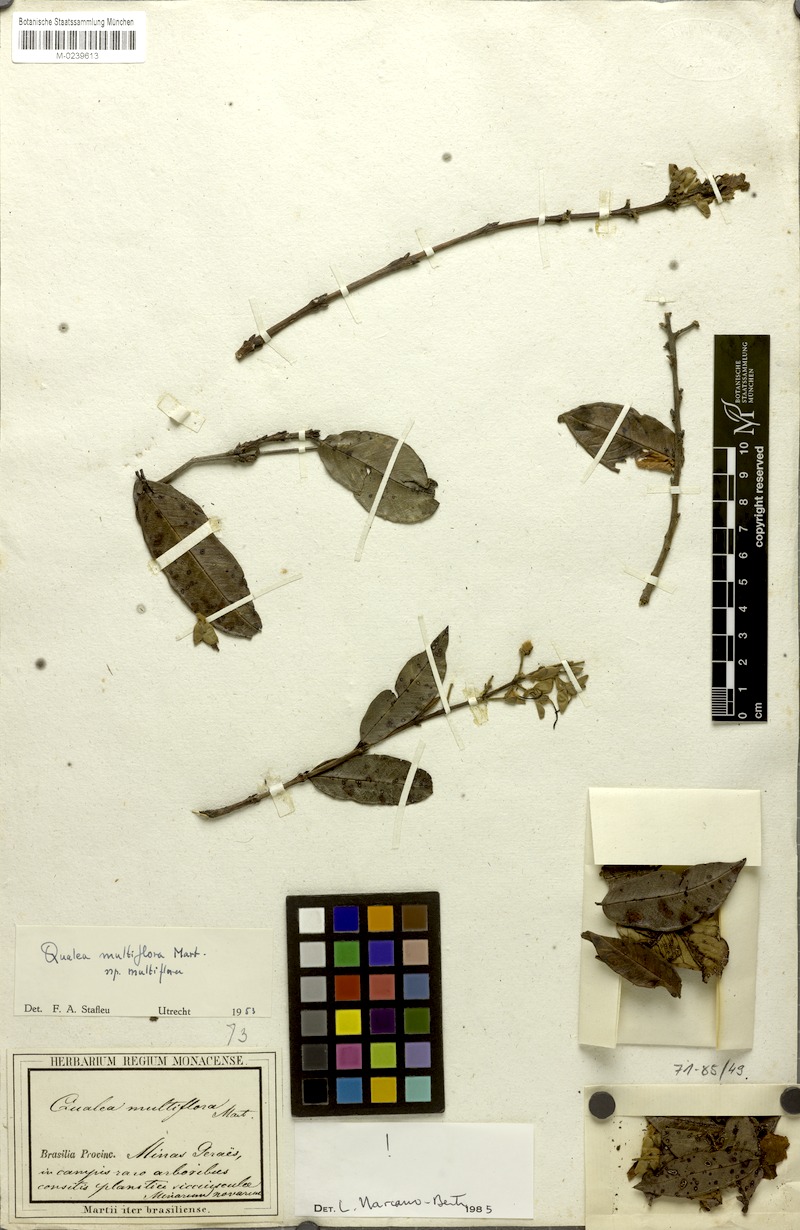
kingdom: Plantae
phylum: Tracheophyta
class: Magnoliopsida
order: Myrtales
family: Vochysiaceae
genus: Qualea
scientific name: Qualea multiflora
